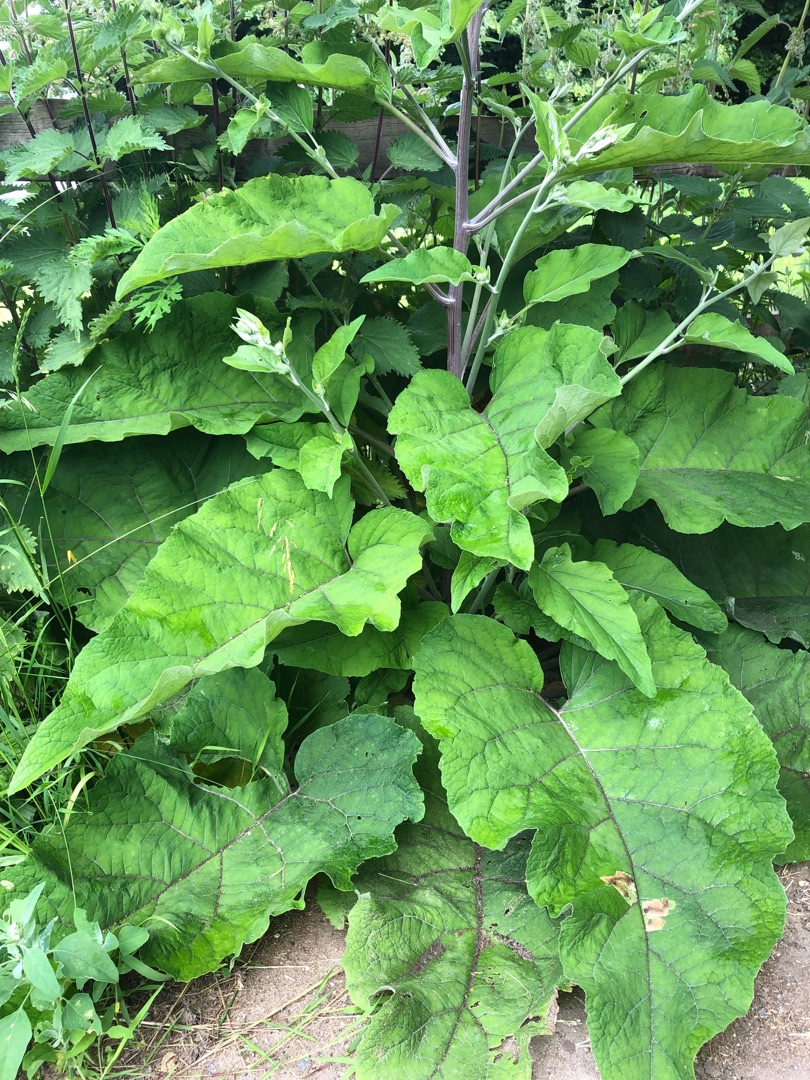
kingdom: Plantae
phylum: Tracheophyta
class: Magnoliopsida
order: Asterales
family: Asteraceae
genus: Arctium
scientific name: Arctium
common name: Burreslægten
